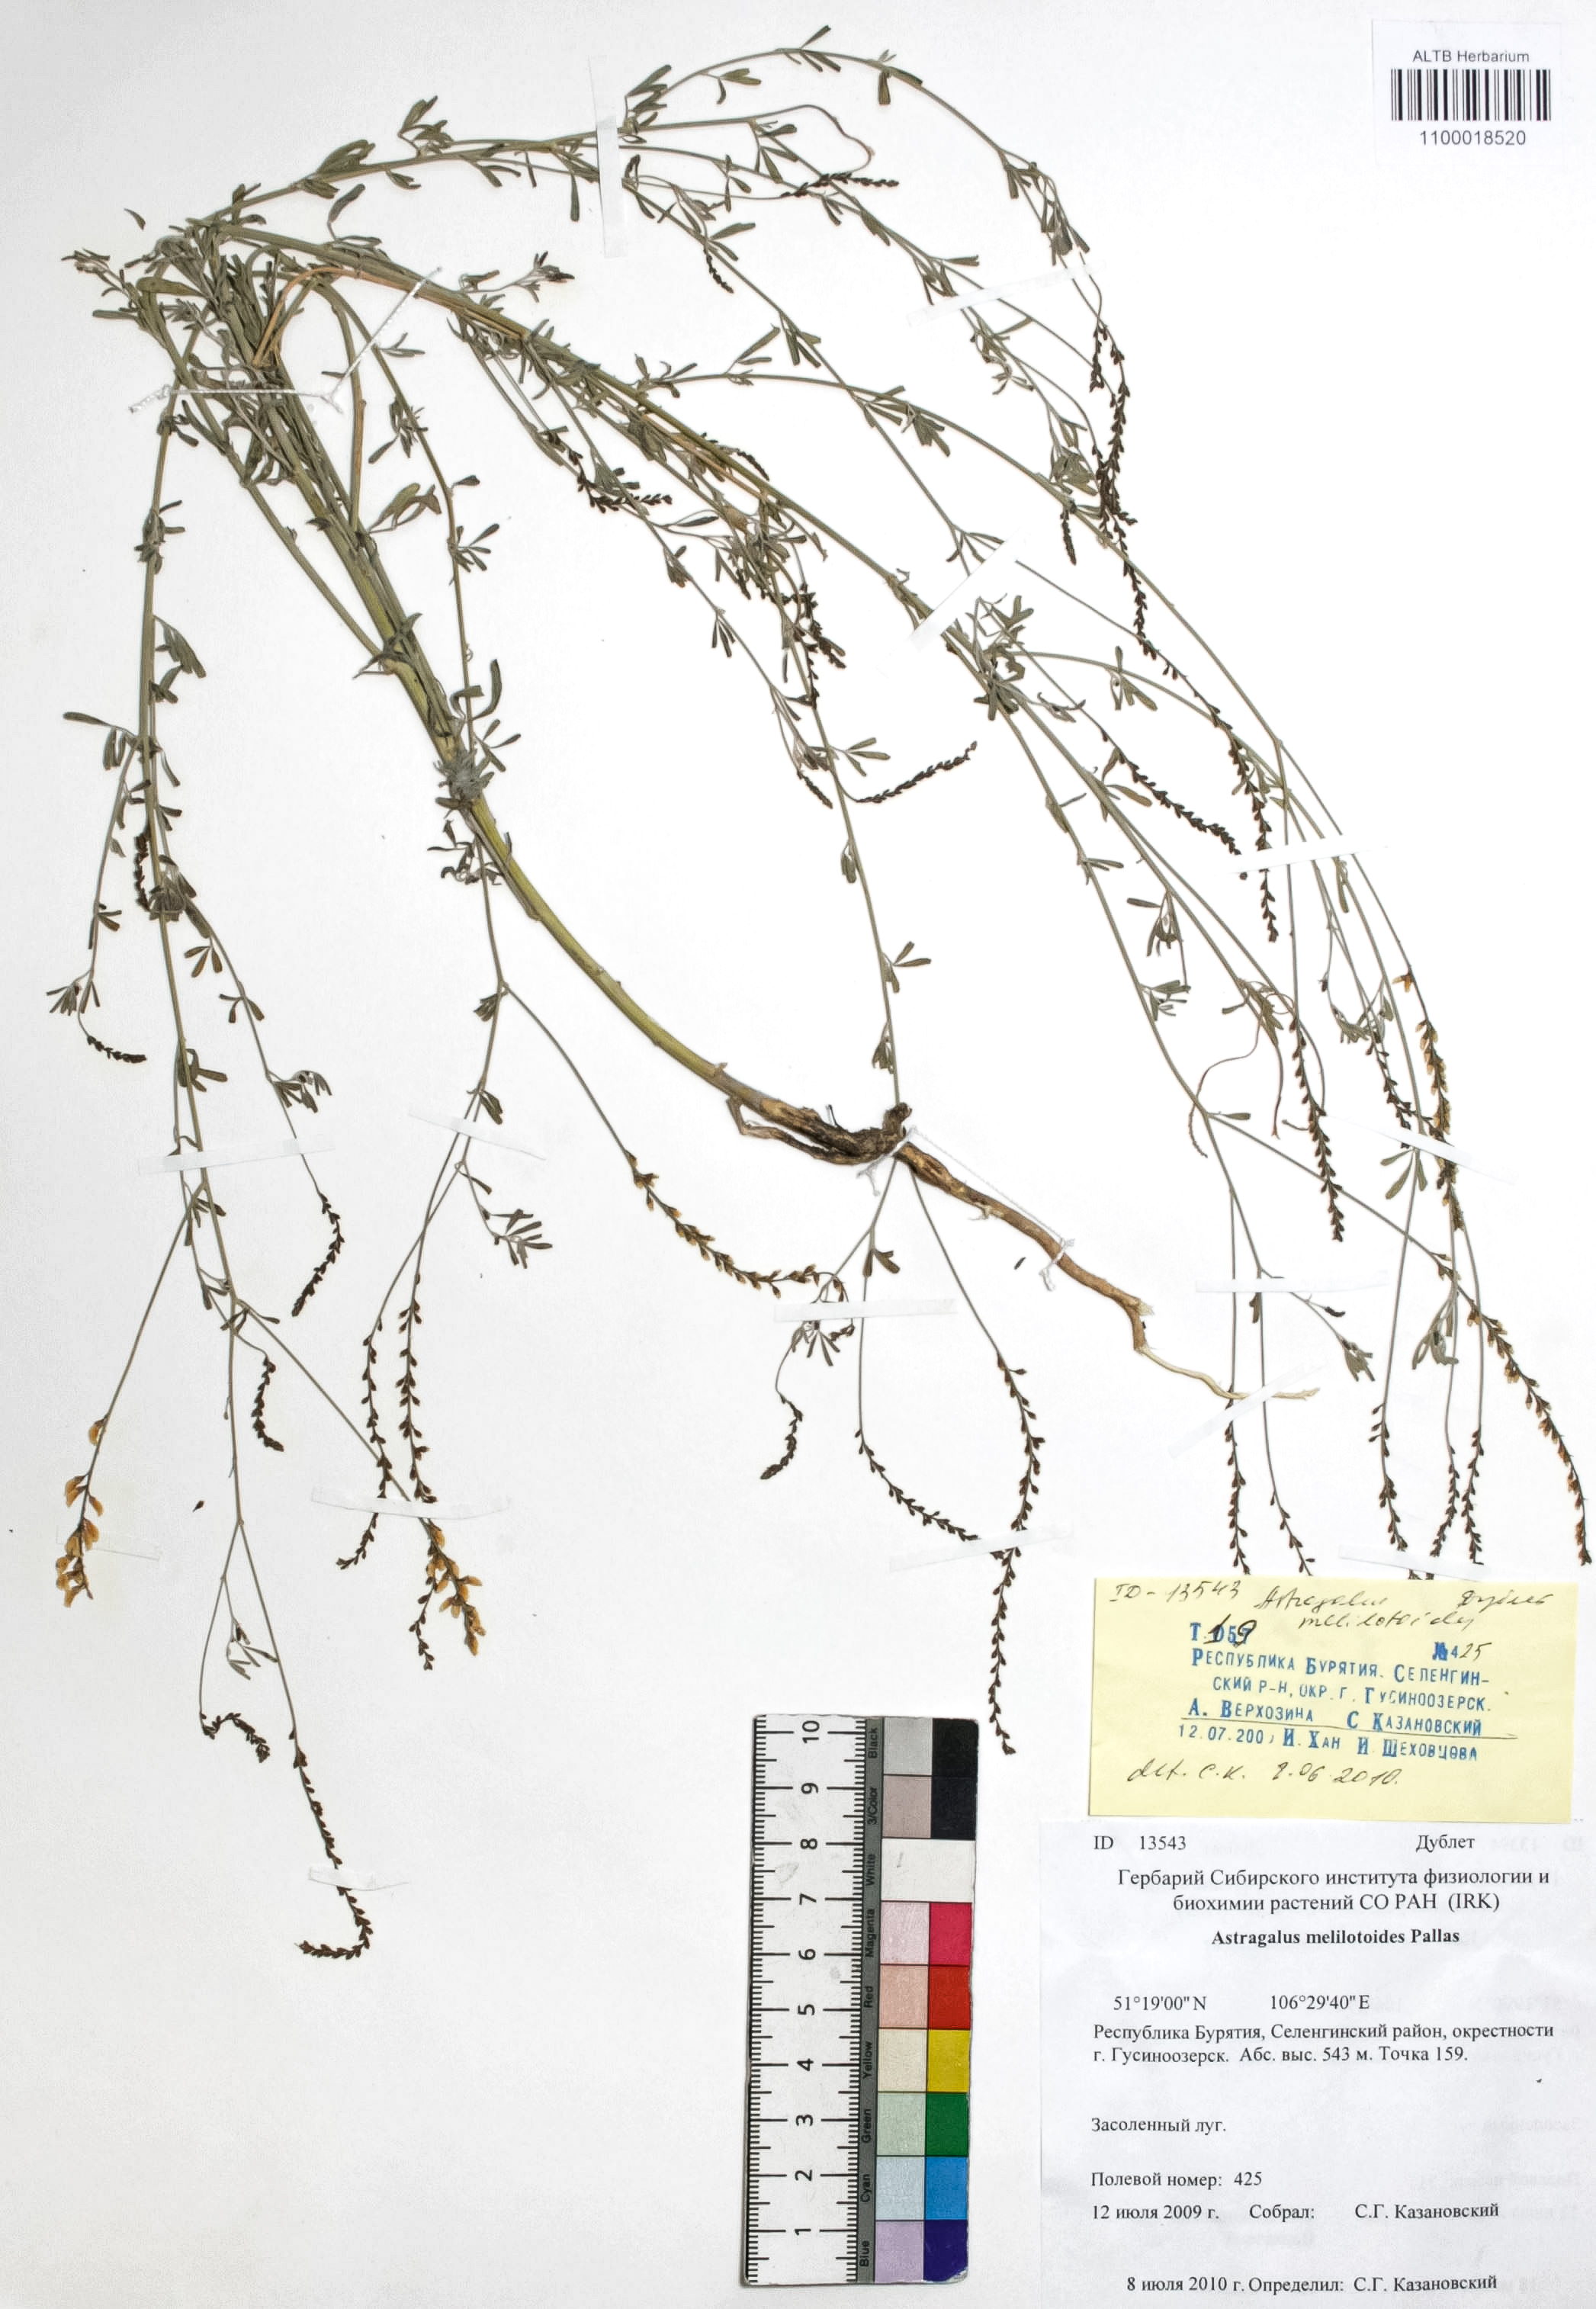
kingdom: Plantae
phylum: Tracheophyta
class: Magnoliopsida
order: Fabales
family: Fabaceae
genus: Astragalus
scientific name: Astragalus melilotoides
